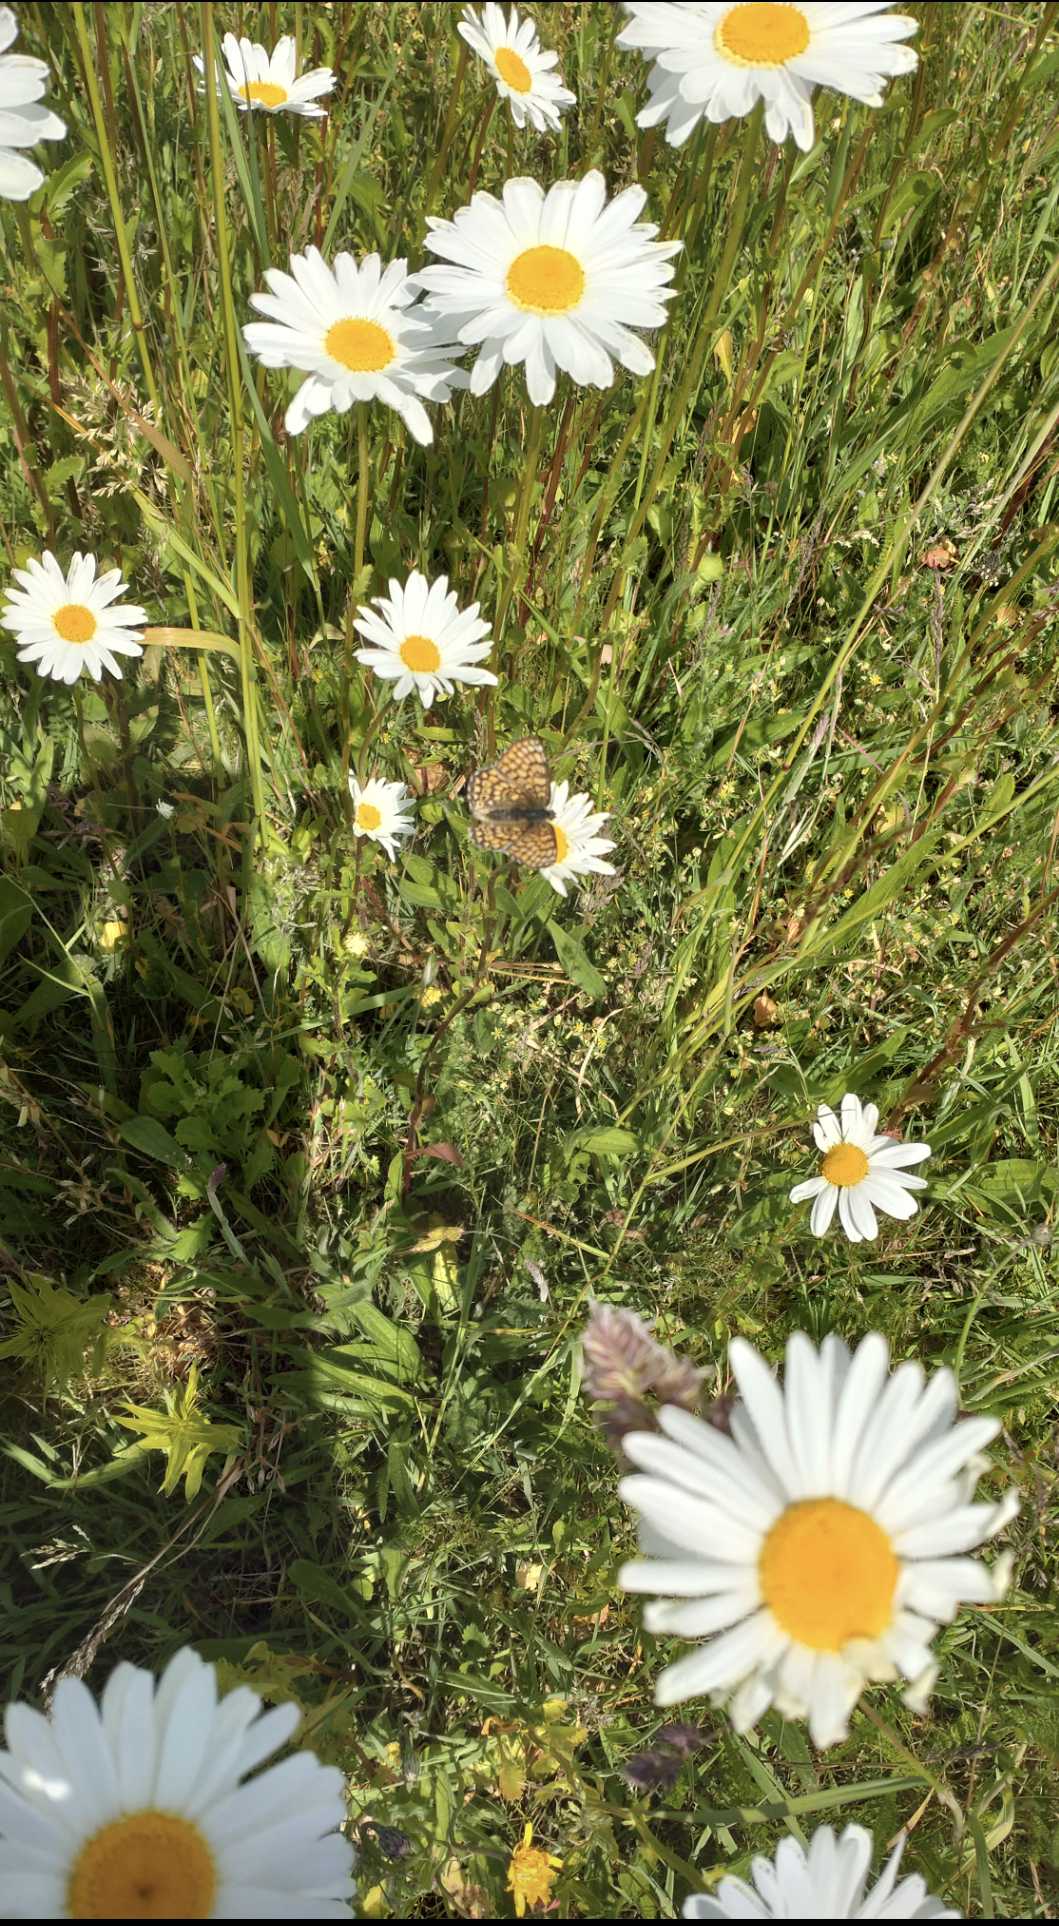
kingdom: Animalia
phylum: Arthropoda
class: Insecta
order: Lepidoptera
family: Nymphalidae
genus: Melitaea
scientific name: Melitaea cinxia
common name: Okkergul pletvinge
